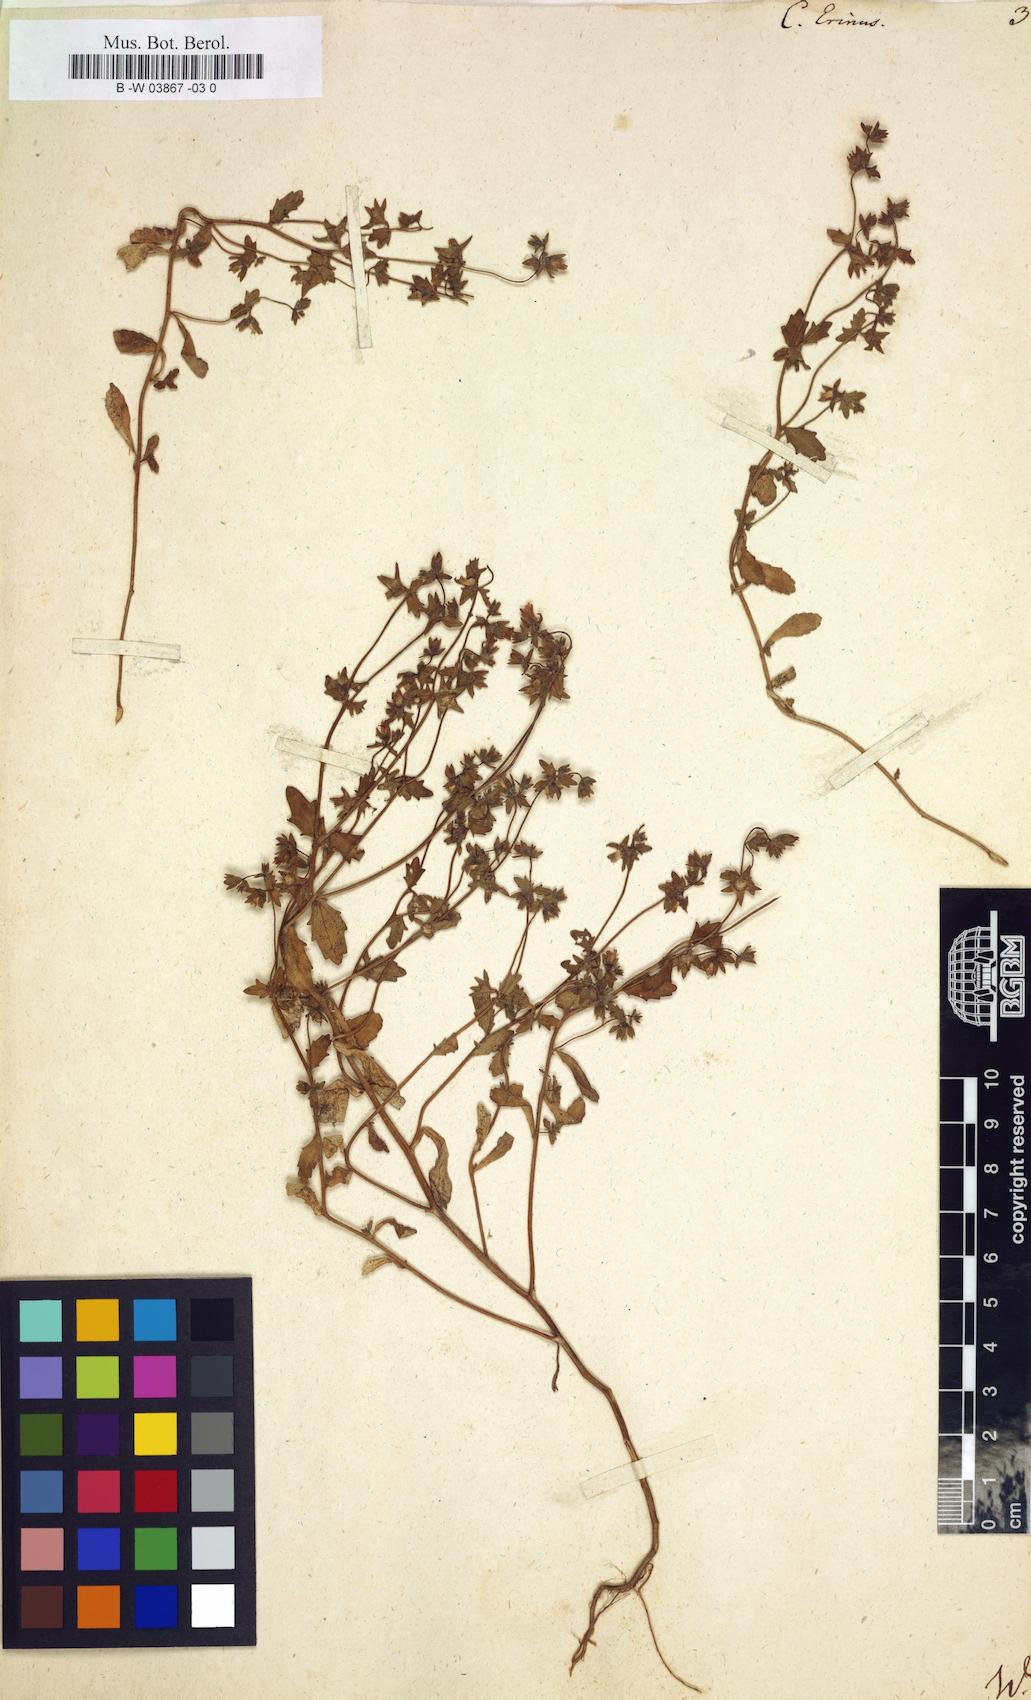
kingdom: Plantae
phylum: Tracheophyta
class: Magnoliopsida
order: Asterales
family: Campanulaceae
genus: Campanula
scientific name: Campanula erinus
